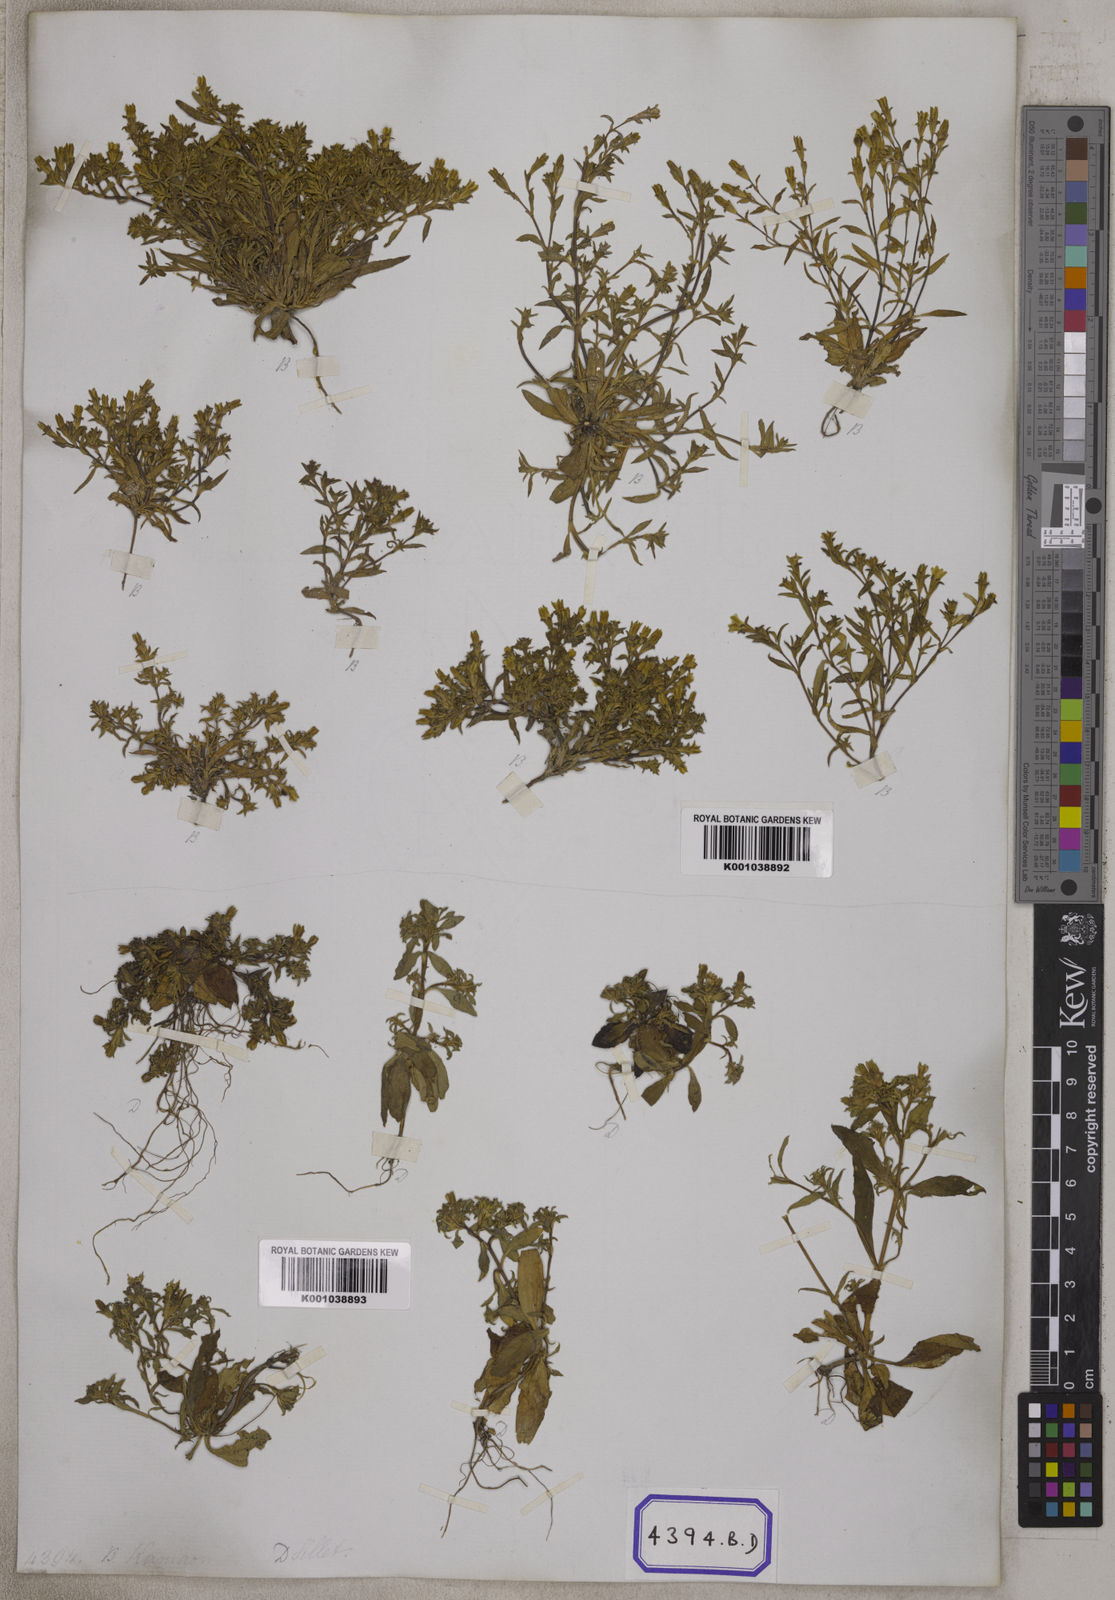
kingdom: Plantae
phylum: Tracheophyta
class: Magnoliopsida
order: Gentianales
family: Gentianaceae
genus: Gentiana
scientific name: Gentiana pedicellata
